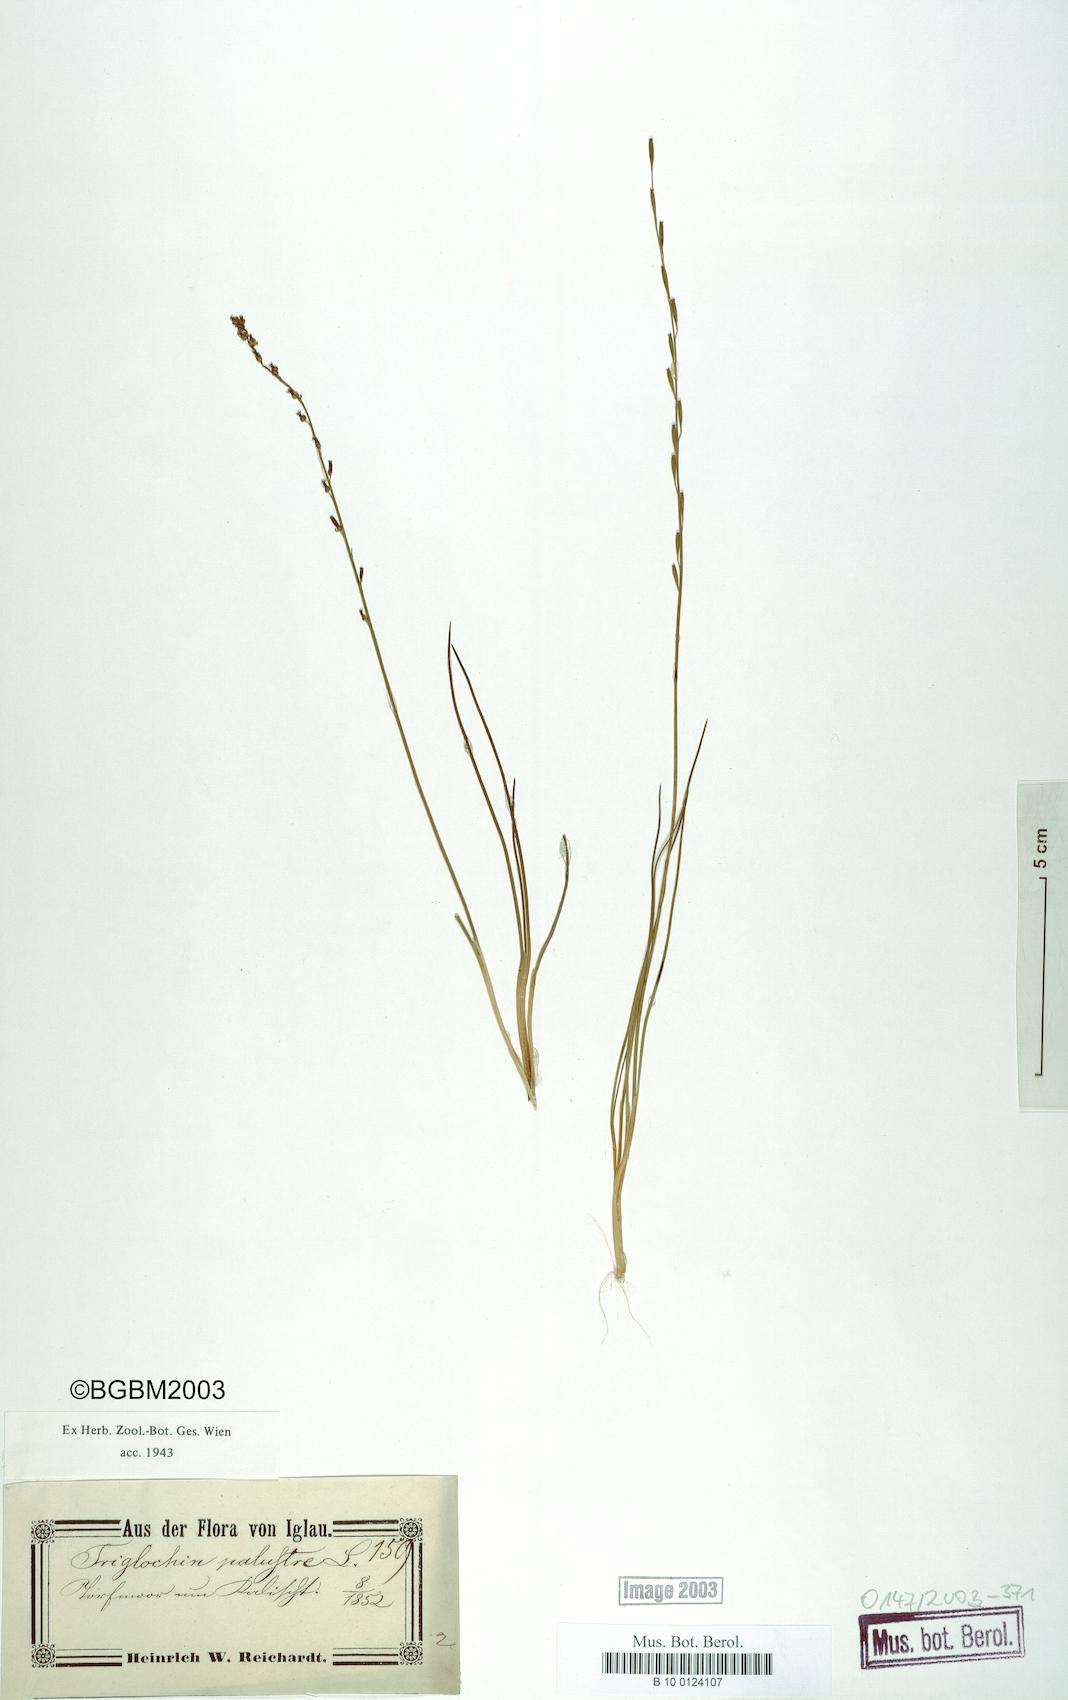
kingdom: Plantae
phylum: Tracheophyta
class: Liliopsida
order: Alismatales
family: Juncaginaceae
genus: Triglochin
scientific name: Triglochin palustris
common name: Marsh arrowgrass
